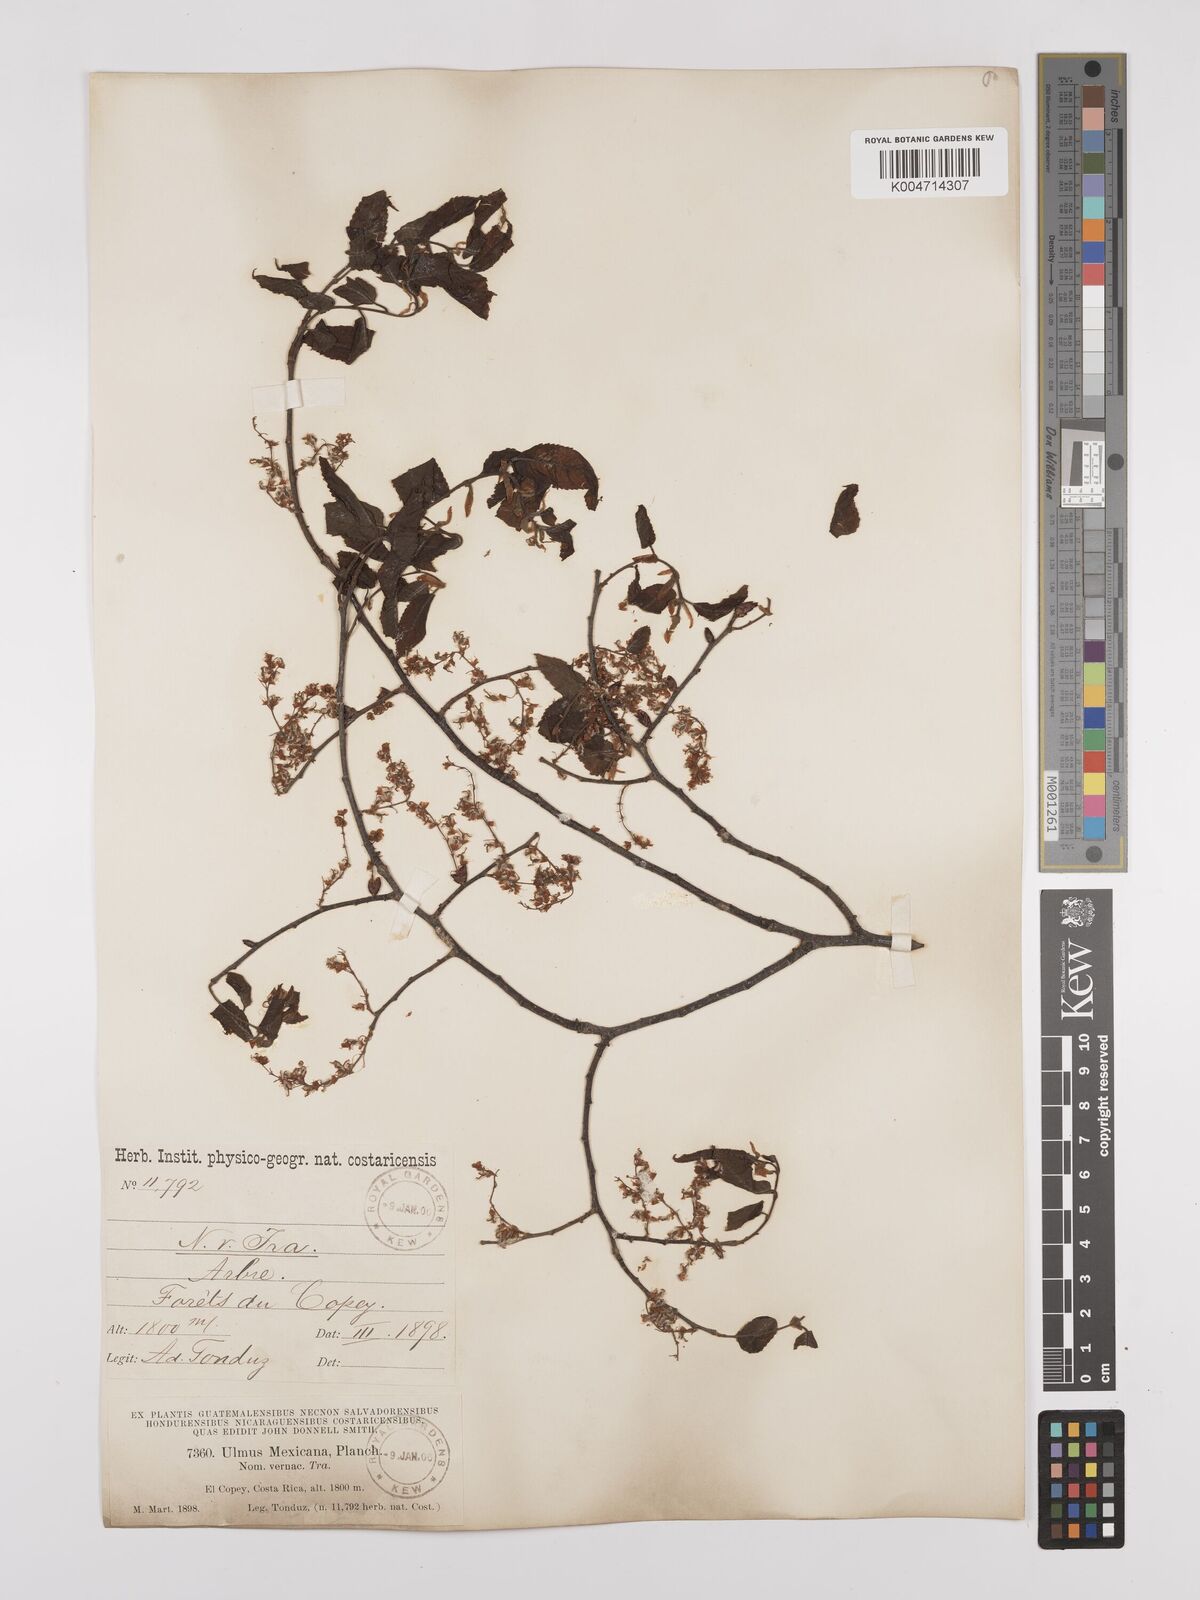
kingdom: Plantae
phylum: Tracheophyta
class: Magnoliopsida
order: Rosales
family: Ulmaceae
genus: Ulmus
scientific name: Ulmus mexicana
